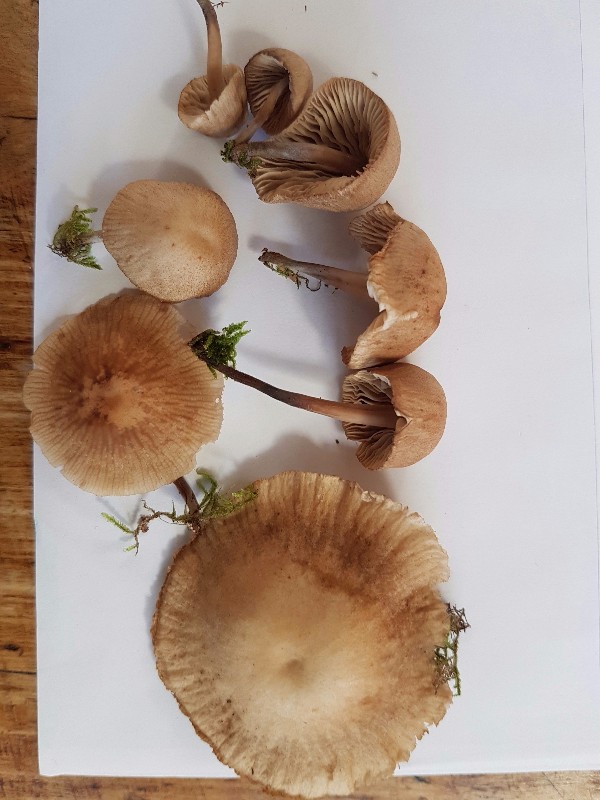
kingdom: Fungi
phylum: Basidiomycota
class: Agaricomycetes
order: Agaricales
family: Omphalotaceae
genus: Gymnopus
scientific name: Gymnopus inodorus
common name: lugtløs fladhat
